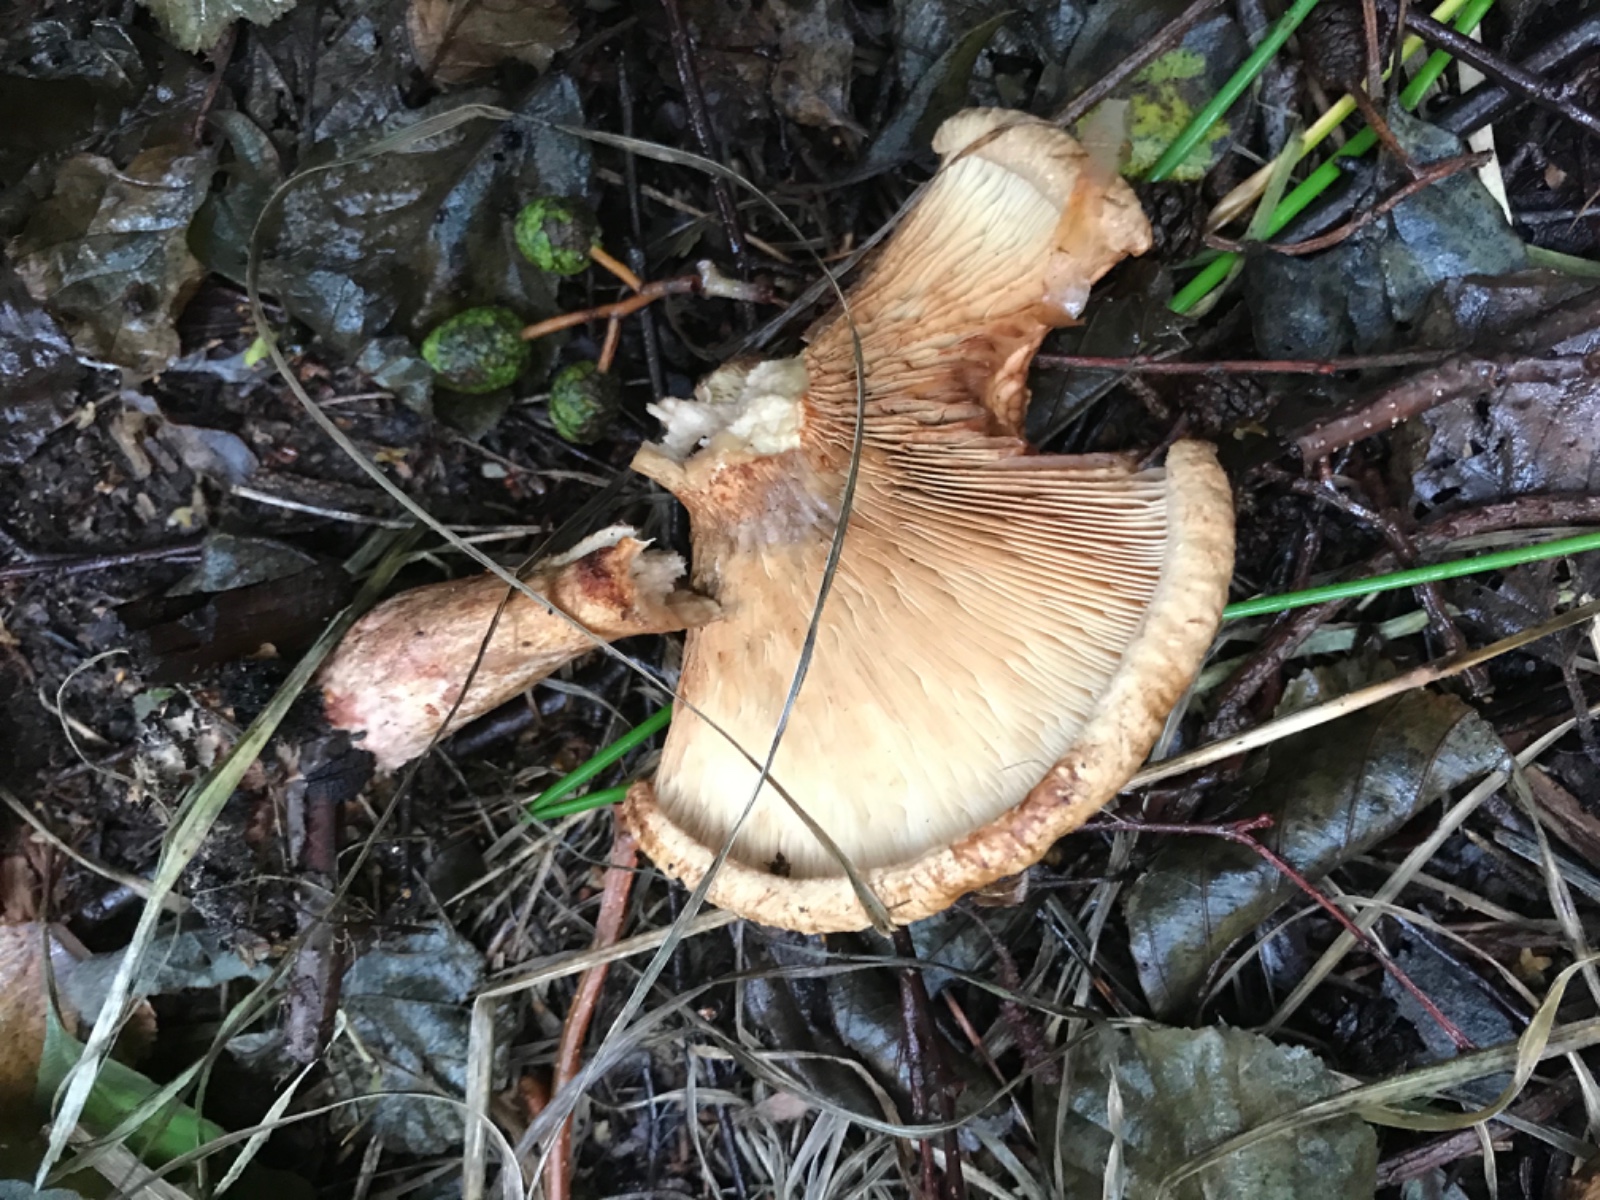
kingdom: Fungi
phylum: Basidiomycota
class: Agaricomycetes
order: Boletales
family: Paxillaceae
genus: Paxillus
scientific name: Paxillus involutus
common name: almindelig netbladhat
